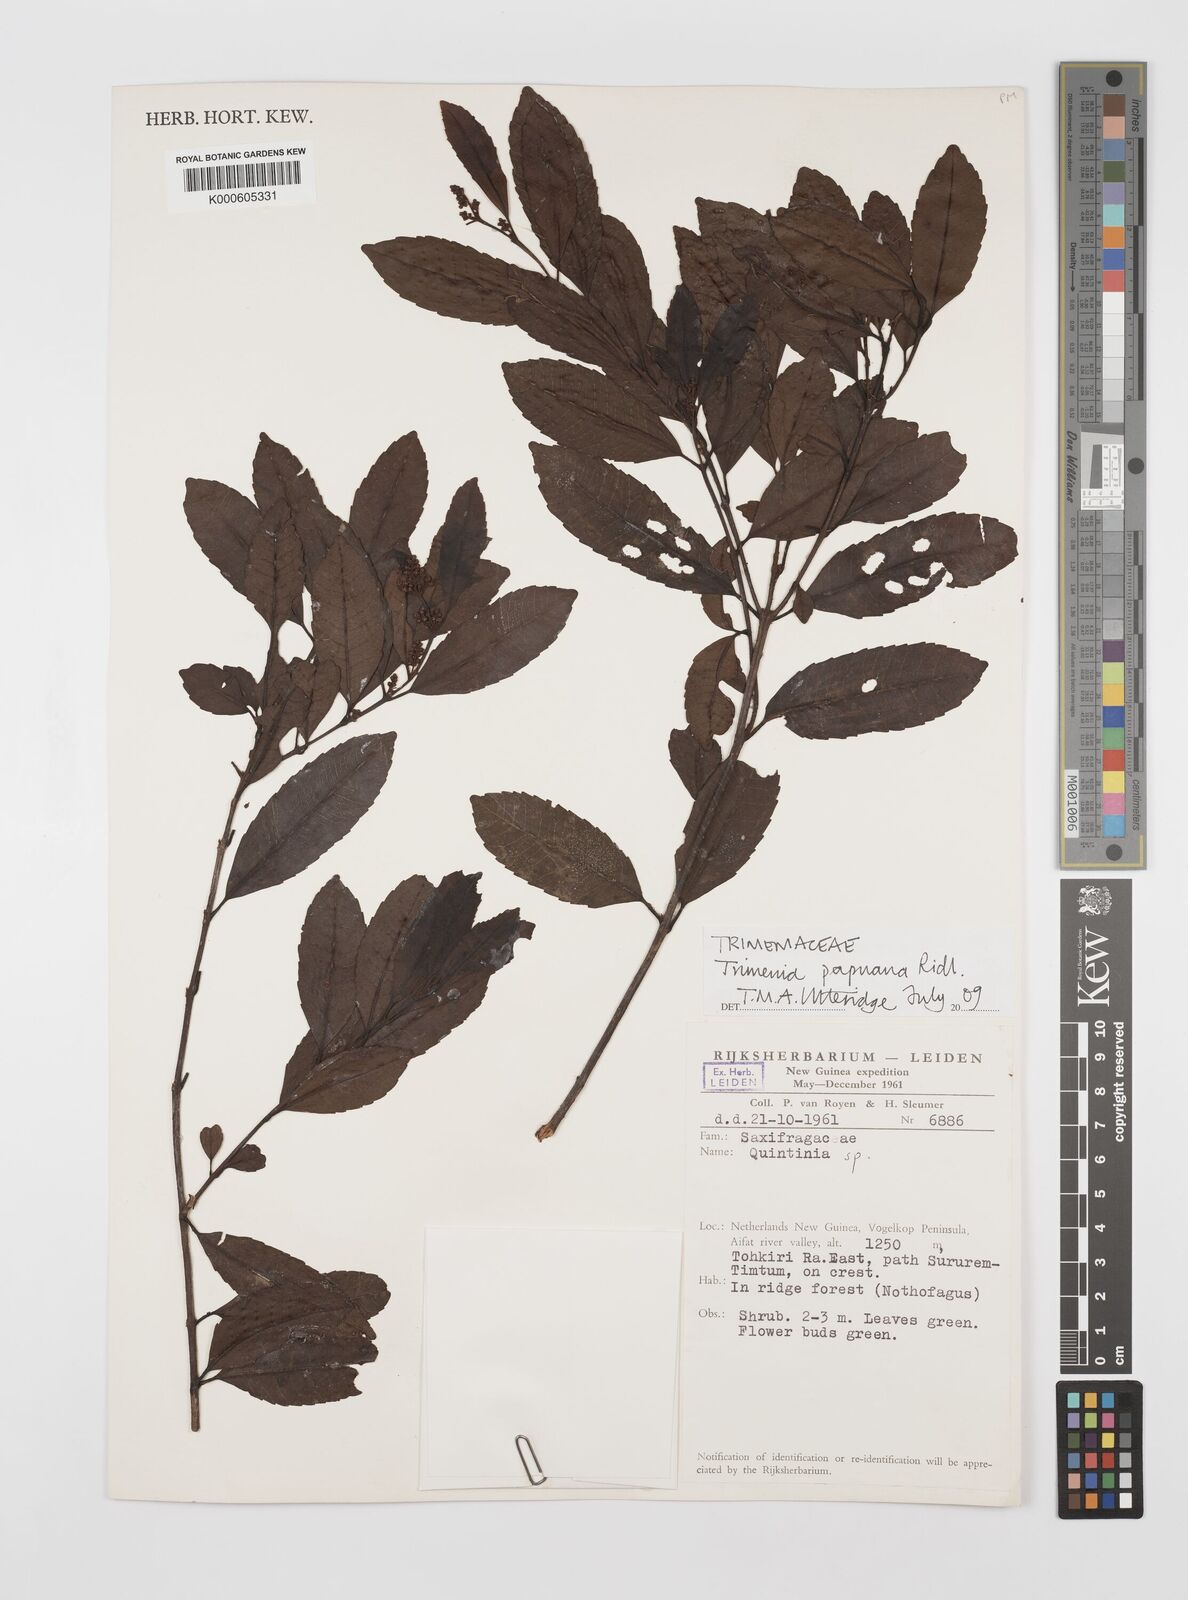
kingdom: Plantae
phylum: Tracheophyta
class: Magnoliopsida
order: Austrobaileyales
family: Trimeniaceae
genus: Trimenia
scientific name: Trimenia papuana
